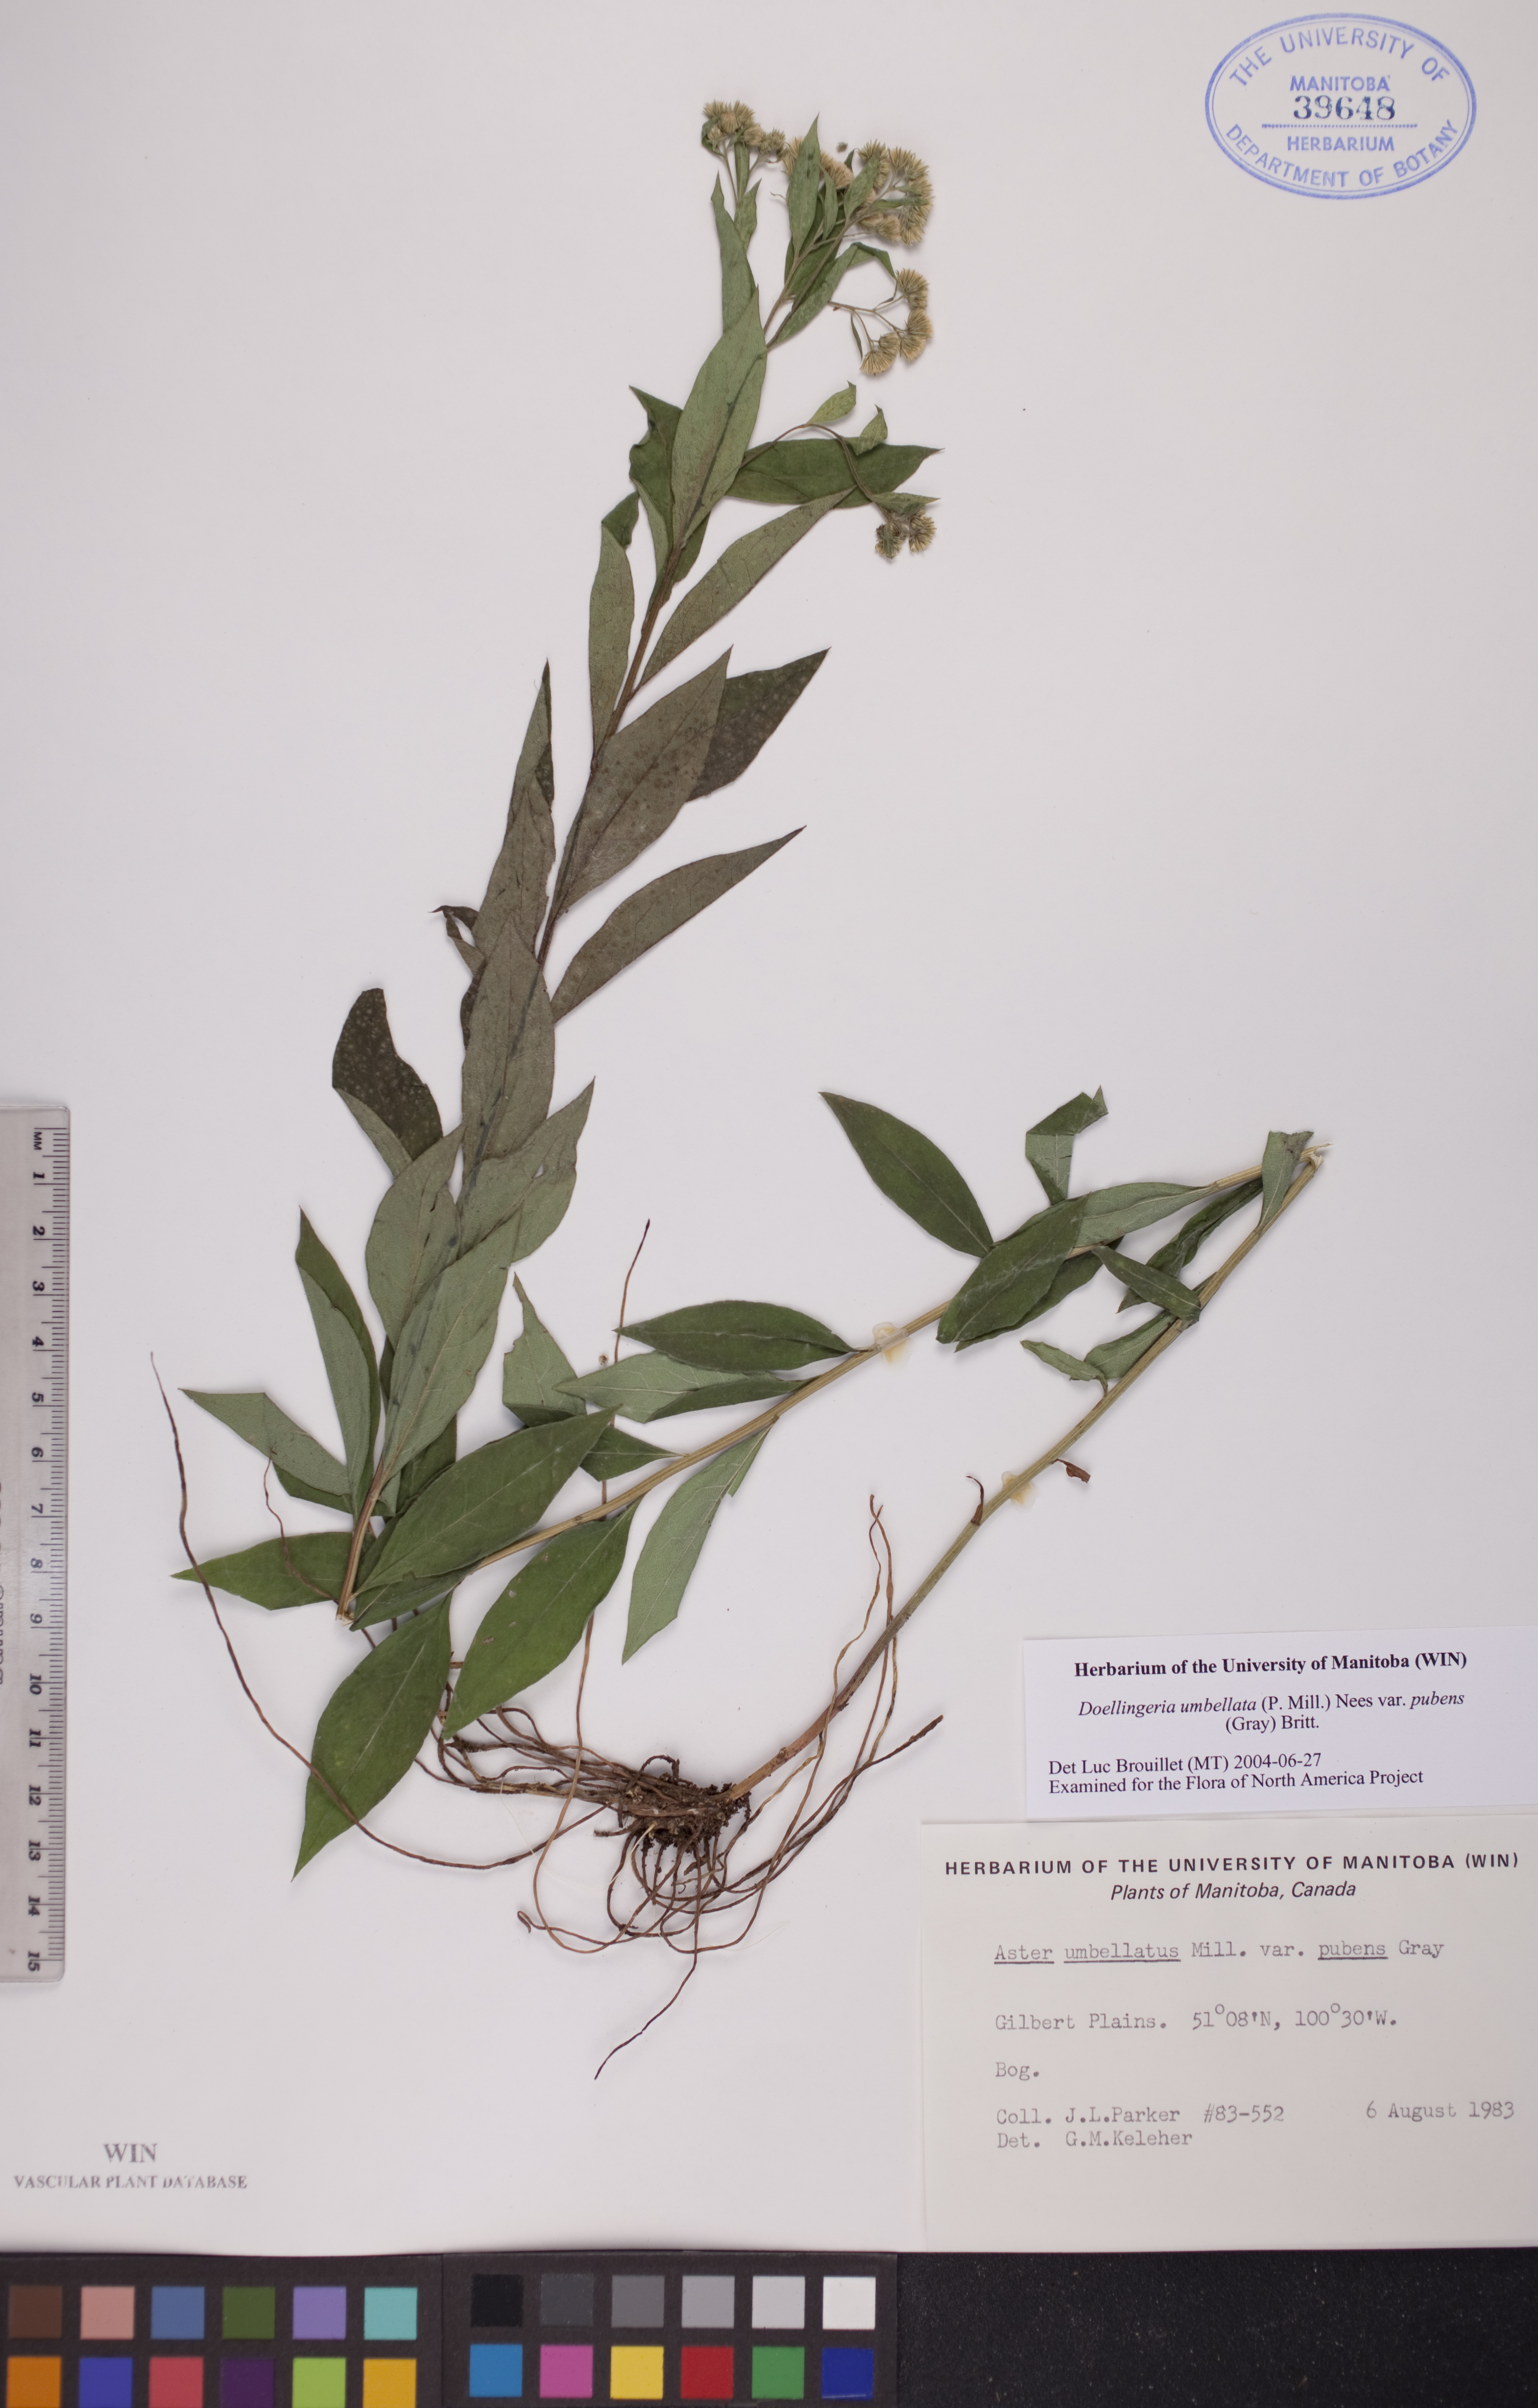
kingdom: Plantae
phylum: Tracheophyta
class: Magnoliopsida
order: Asterales
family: Asteraceae
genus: Doellingeria
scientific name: Doellingeria umbellata
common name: Flat-top white aster
